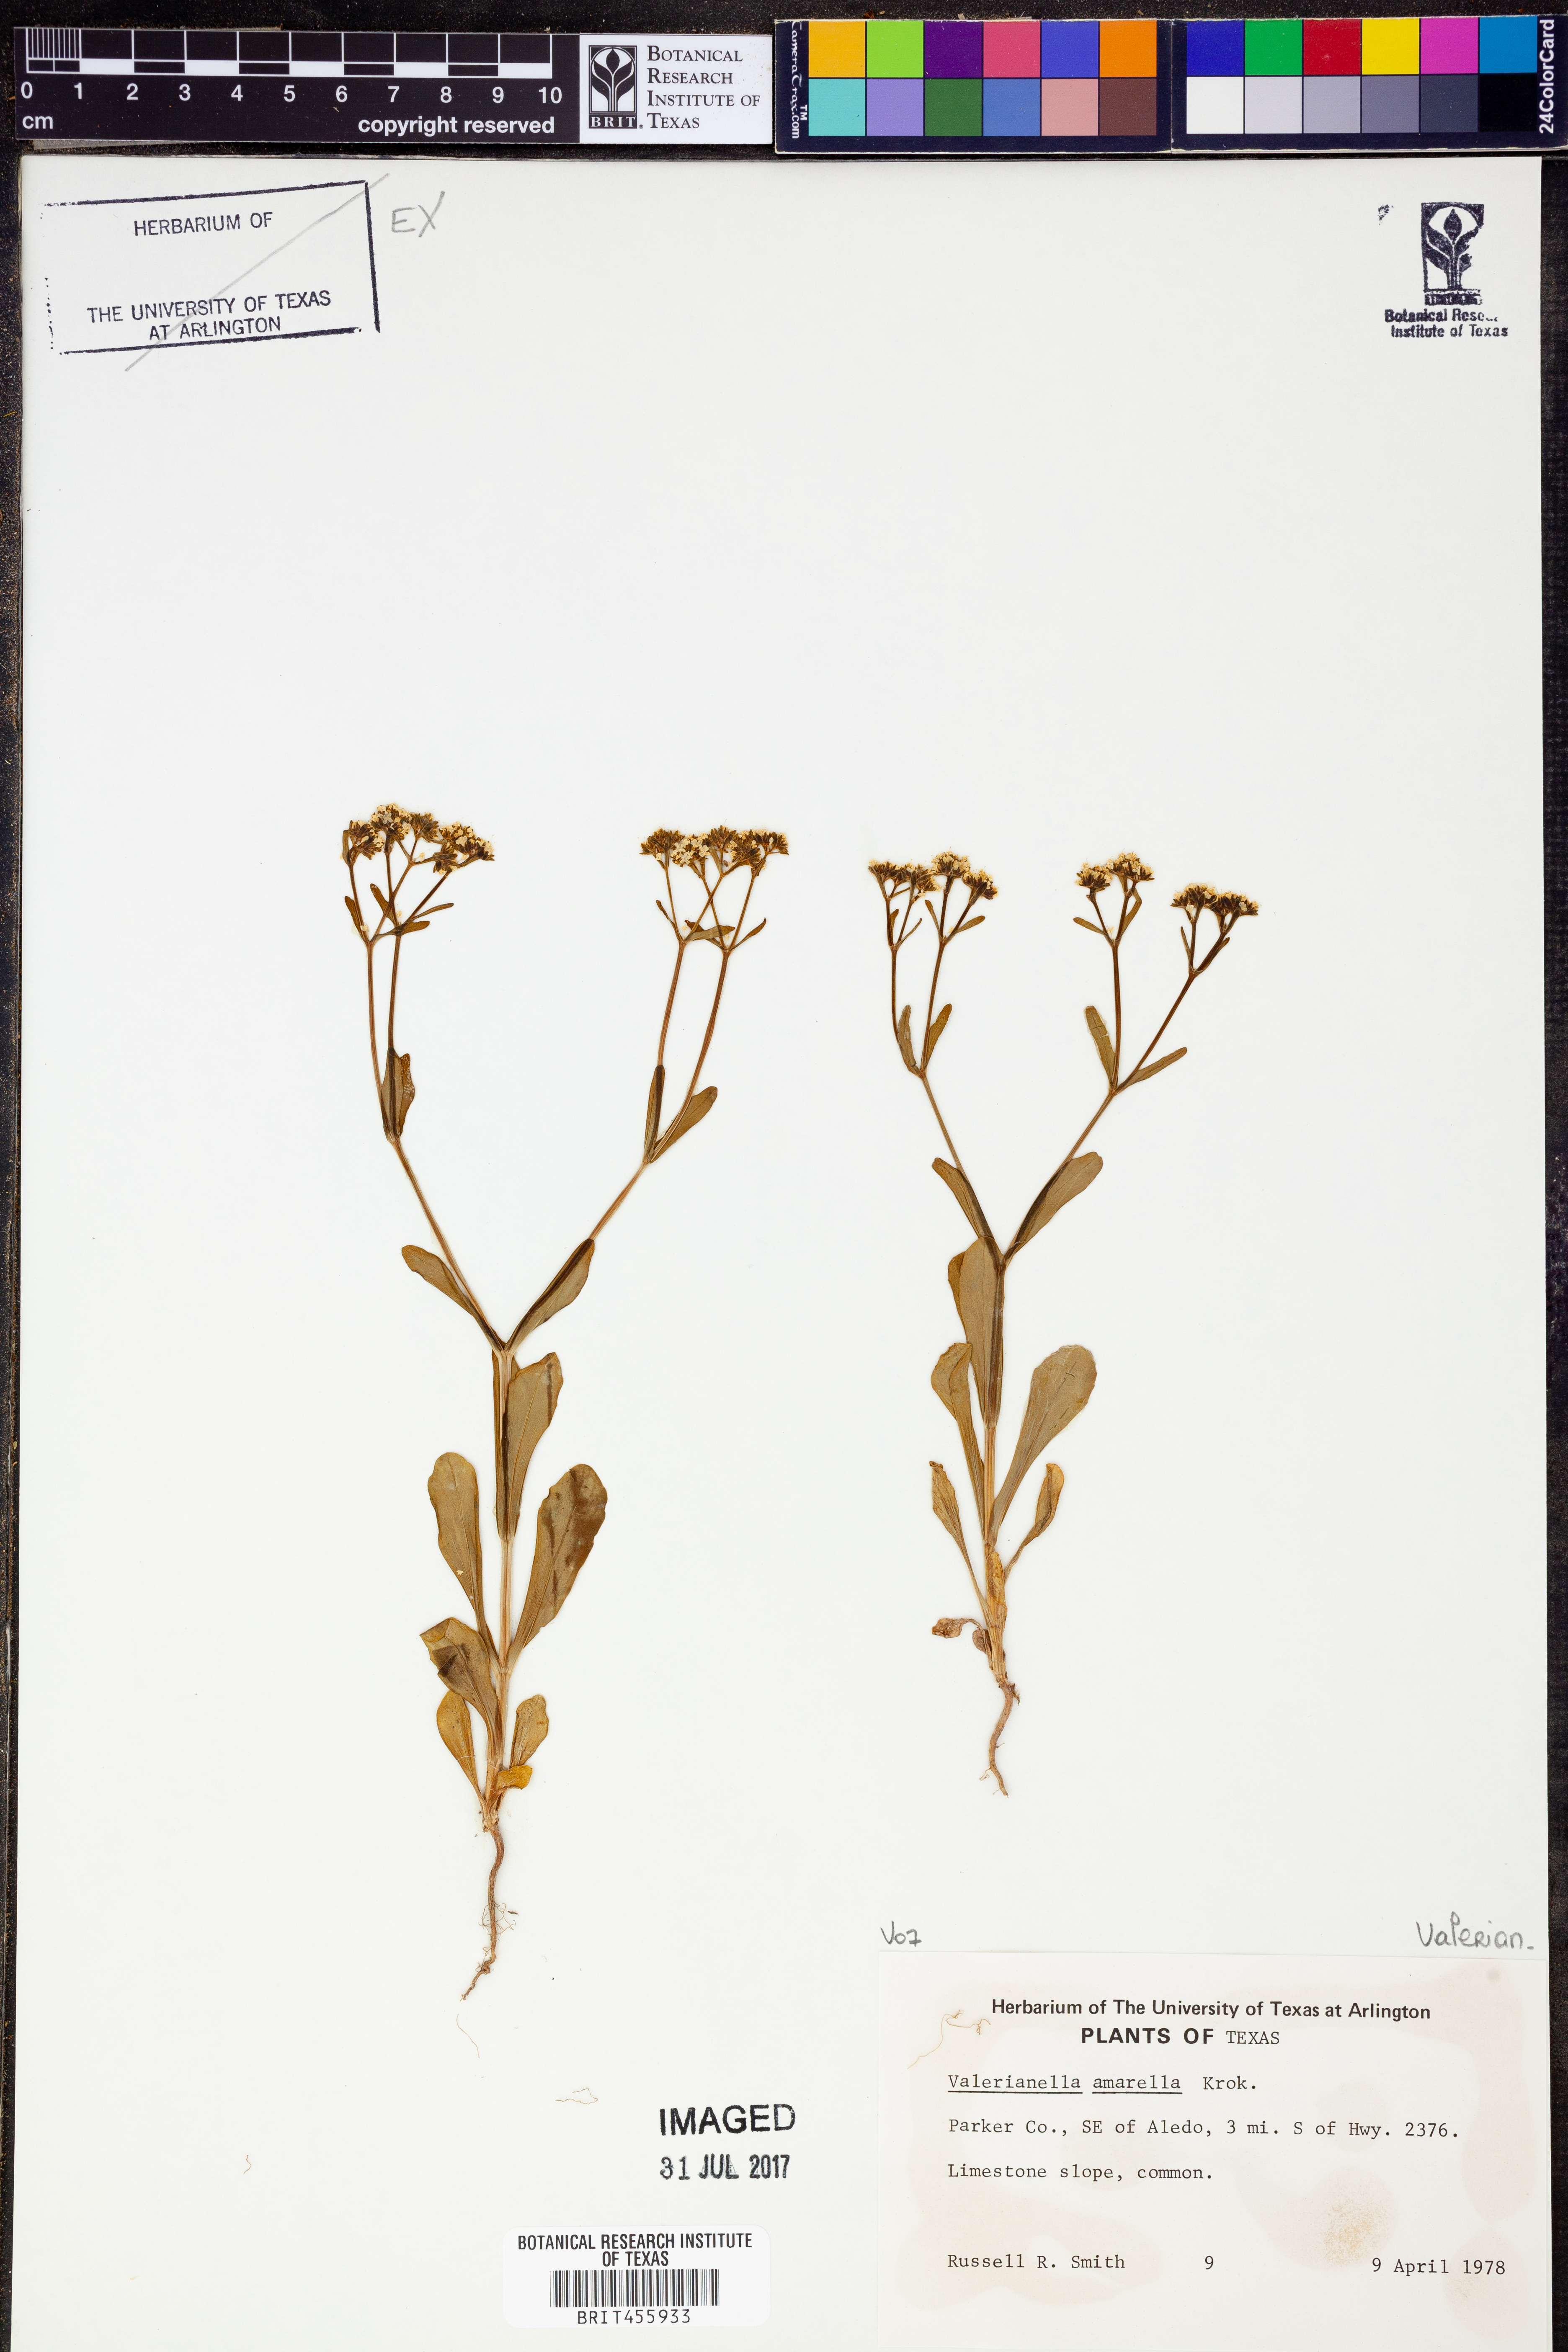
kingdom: Plantae
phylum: Tracheophyta
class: Magnoliopsida
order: Dipsacales
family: Caprifoliaceae
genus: Valerianella
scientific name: Valerianella amarella
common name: Hariy cornsalad
